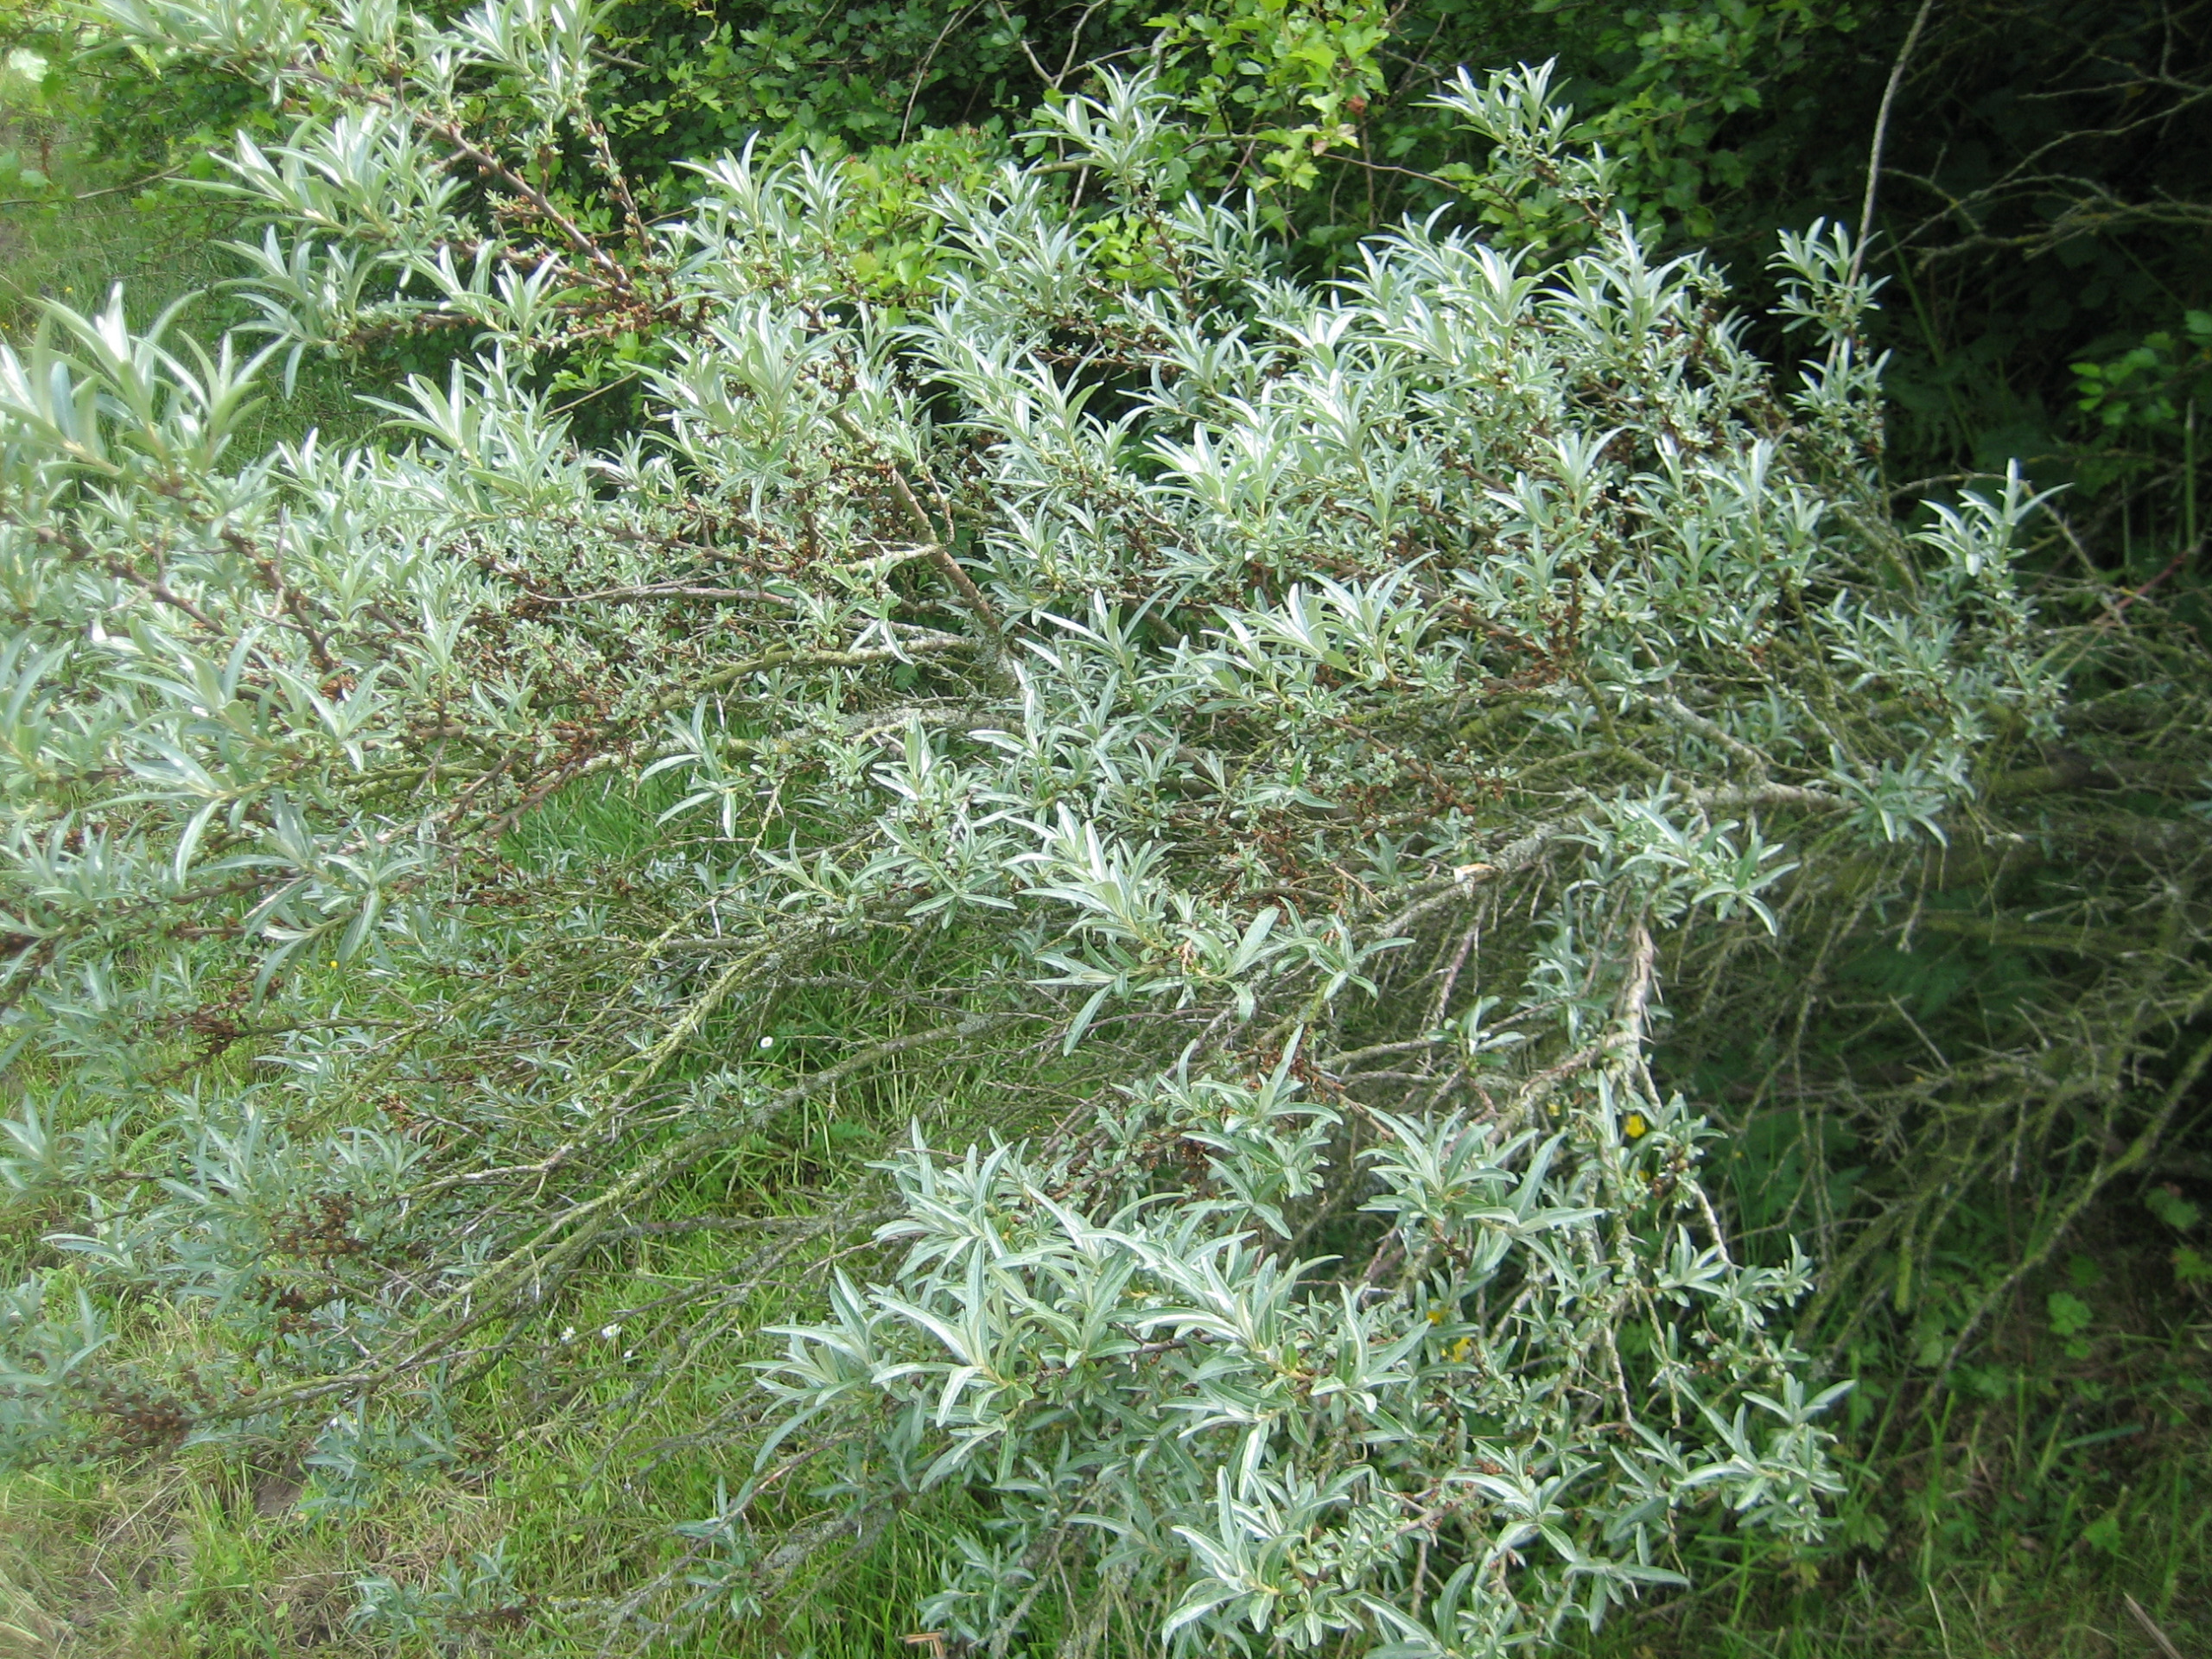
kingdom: Plantae
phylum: Tracheophyta
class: Magnoliopsida
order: Rosales
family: Elaeagnaceae
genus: Hippophae
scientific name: Hippophae rhamnoides
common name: Havtorn
